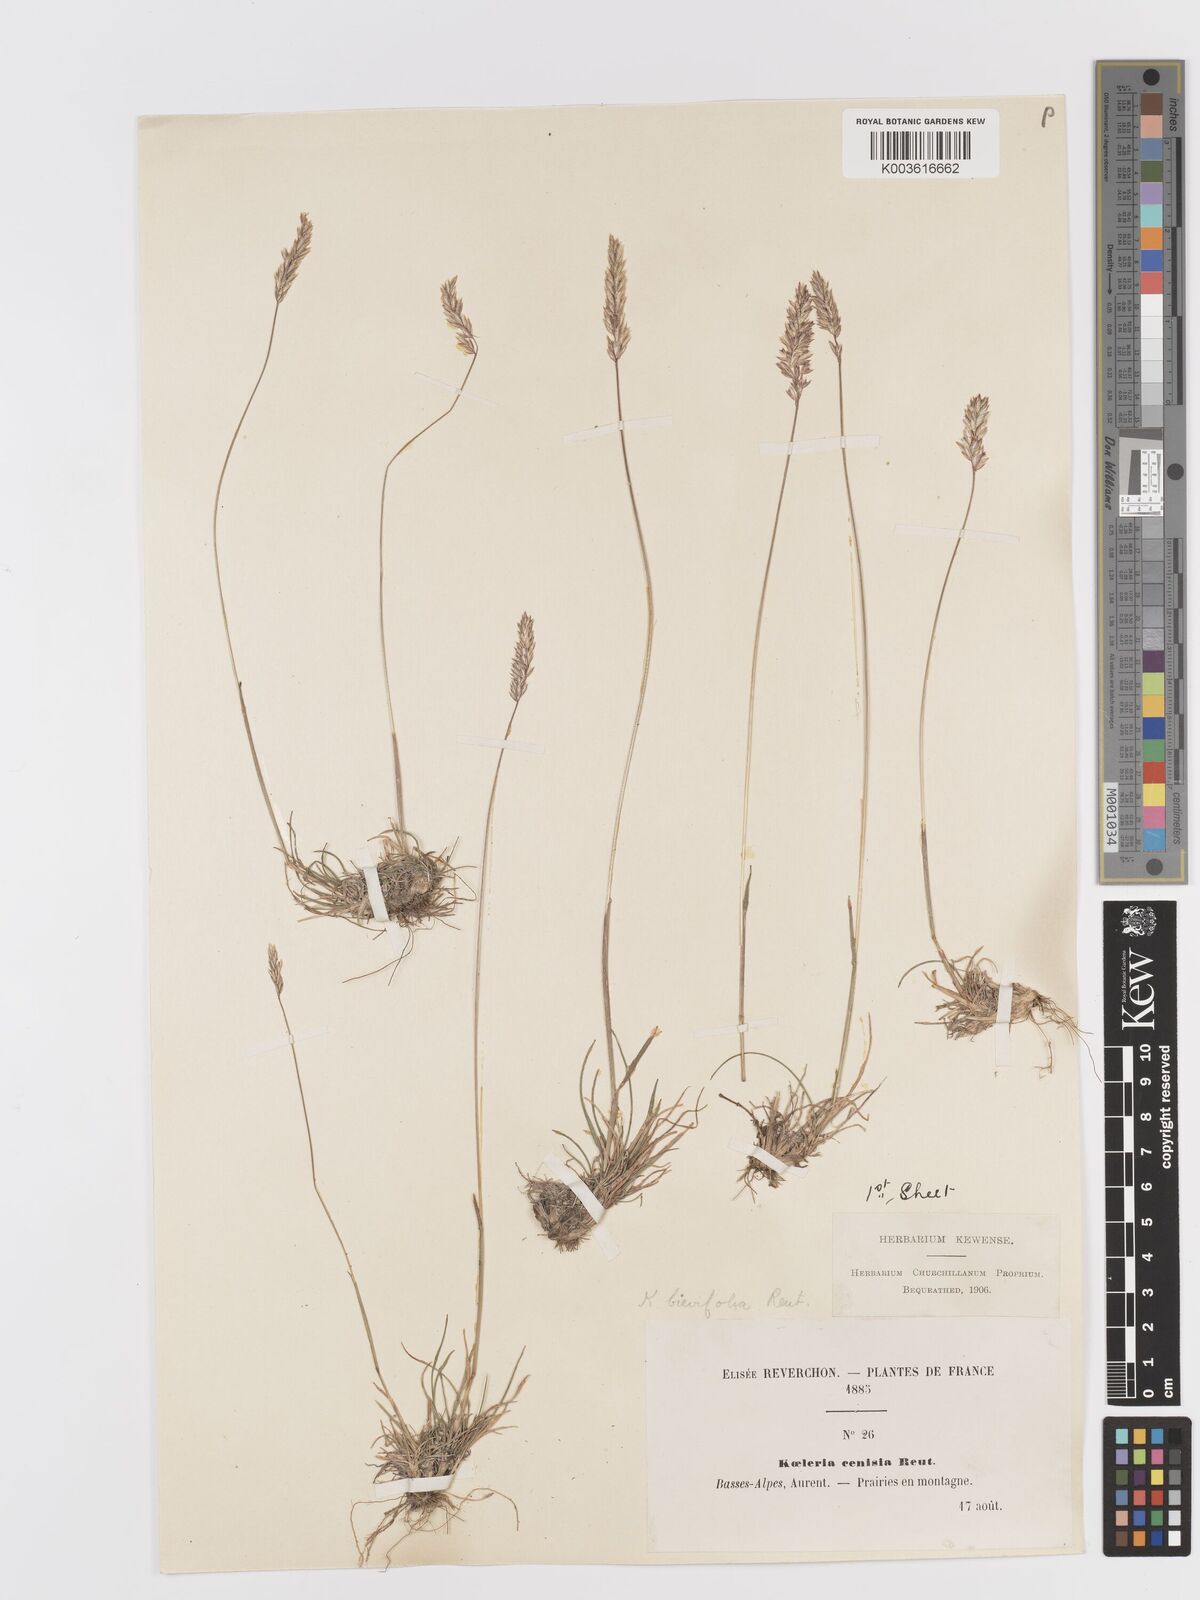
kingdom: Plantae
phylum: Tracheophyta
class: Liliopsida
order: Poales
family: Poaceae
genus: Koeleria
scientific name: Koeleria cenisia
